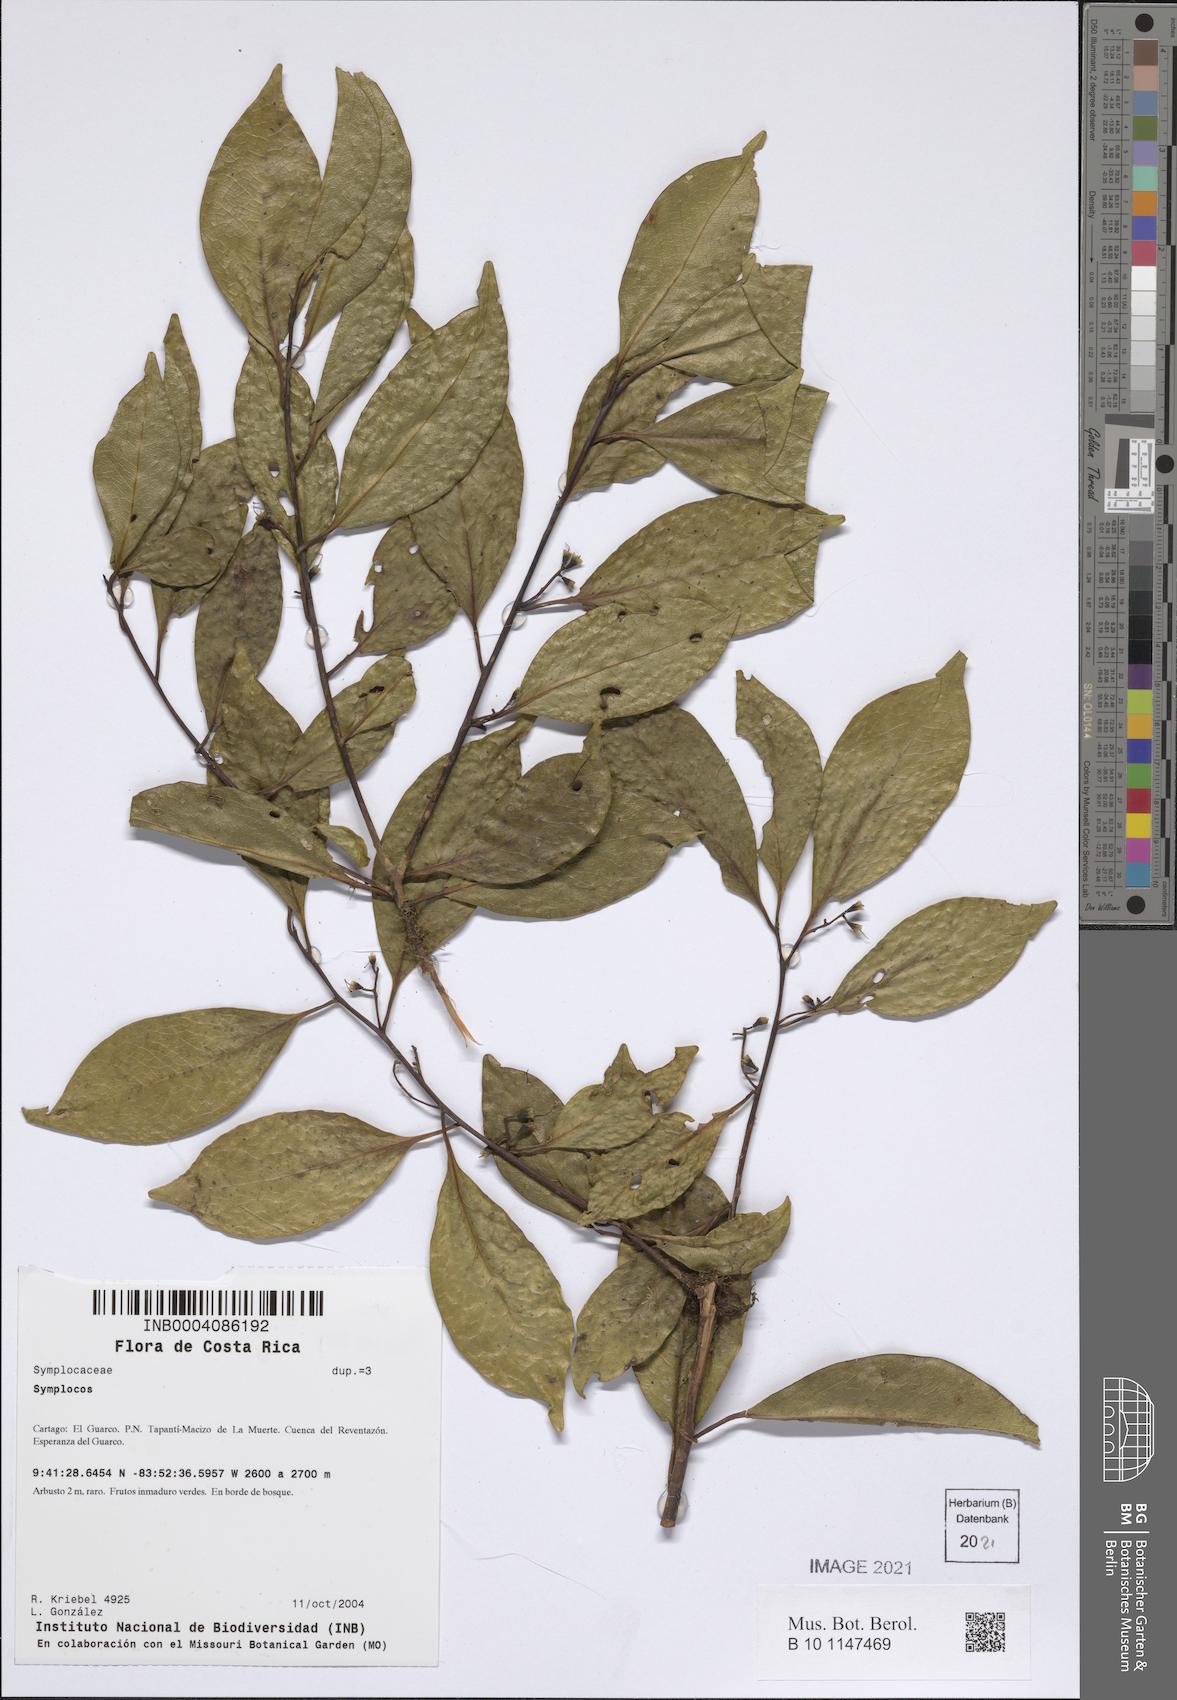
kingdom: Plantae
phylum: Tracheophyta
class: Magnoliopsida
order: Ericales
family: Symplocaceae
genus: Symplocos
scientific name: Symplocos
